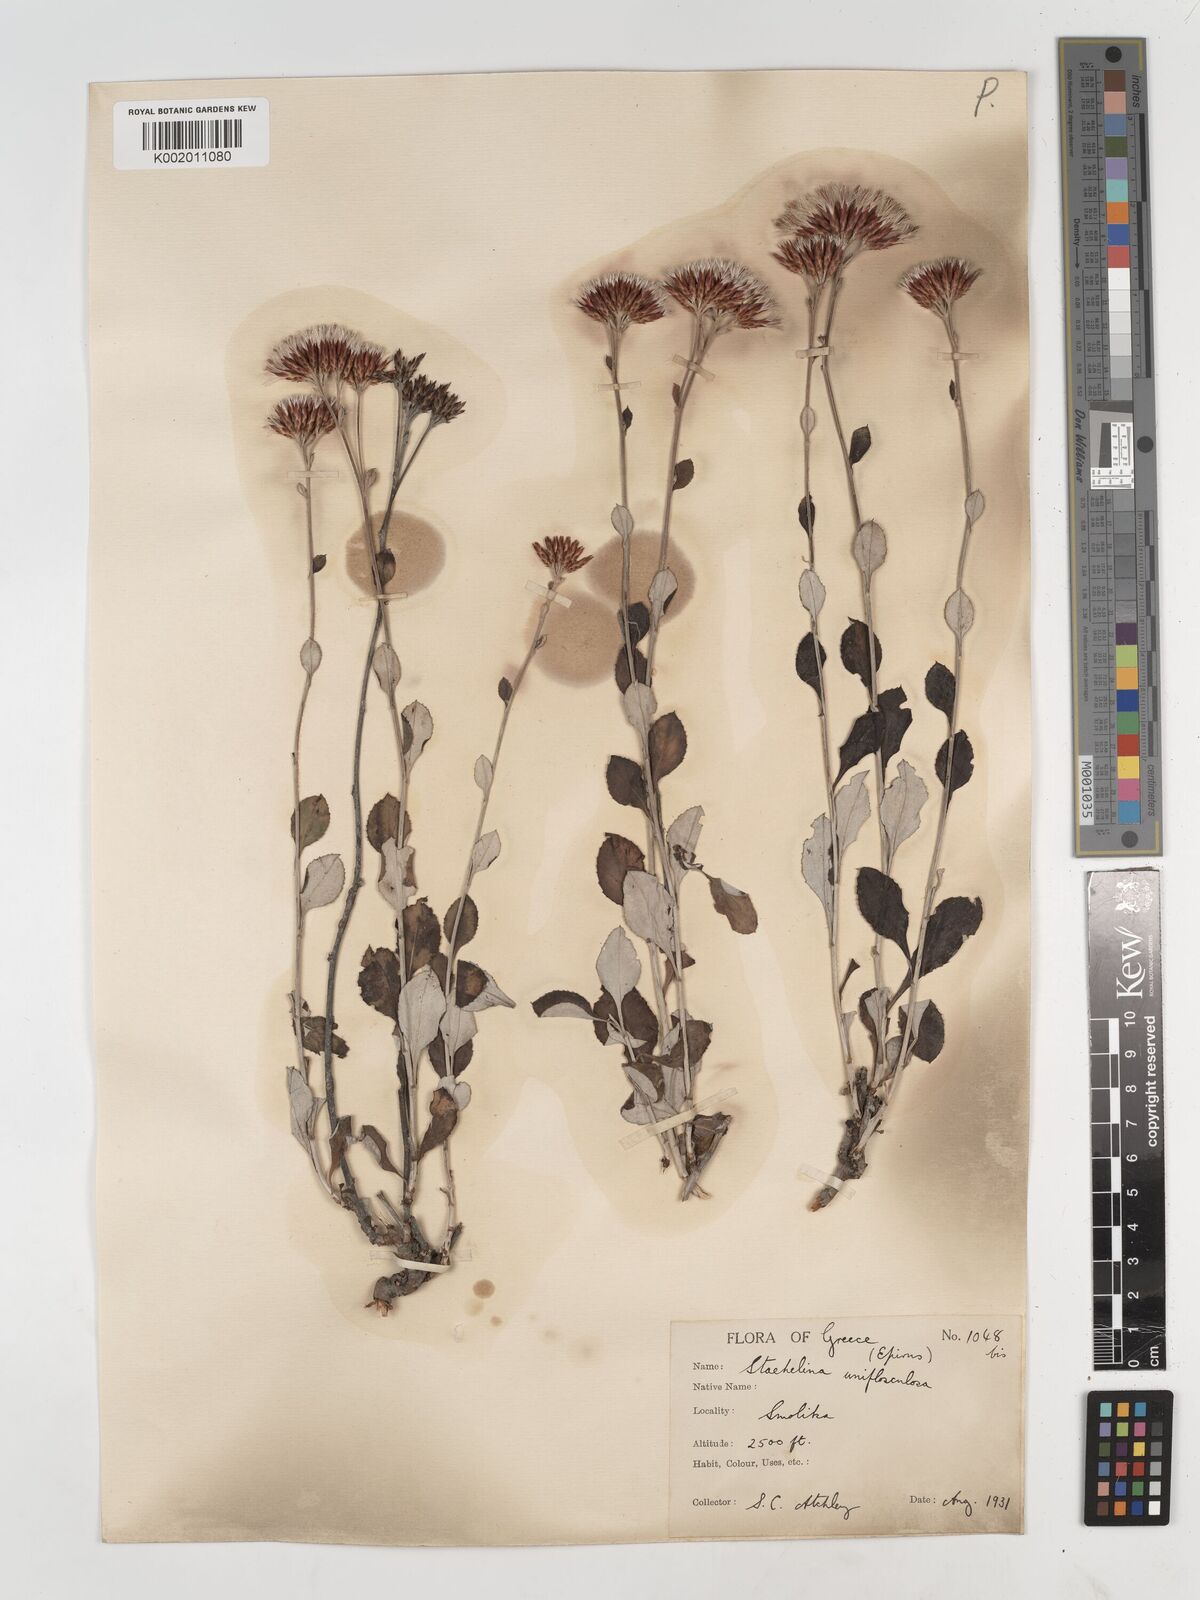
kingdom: Plantae
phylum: Tracheophyta
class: Magnoliopsida
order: Asterales
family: Asteraceae
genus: Staehelina
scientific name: Staehelina uniflosculosa
